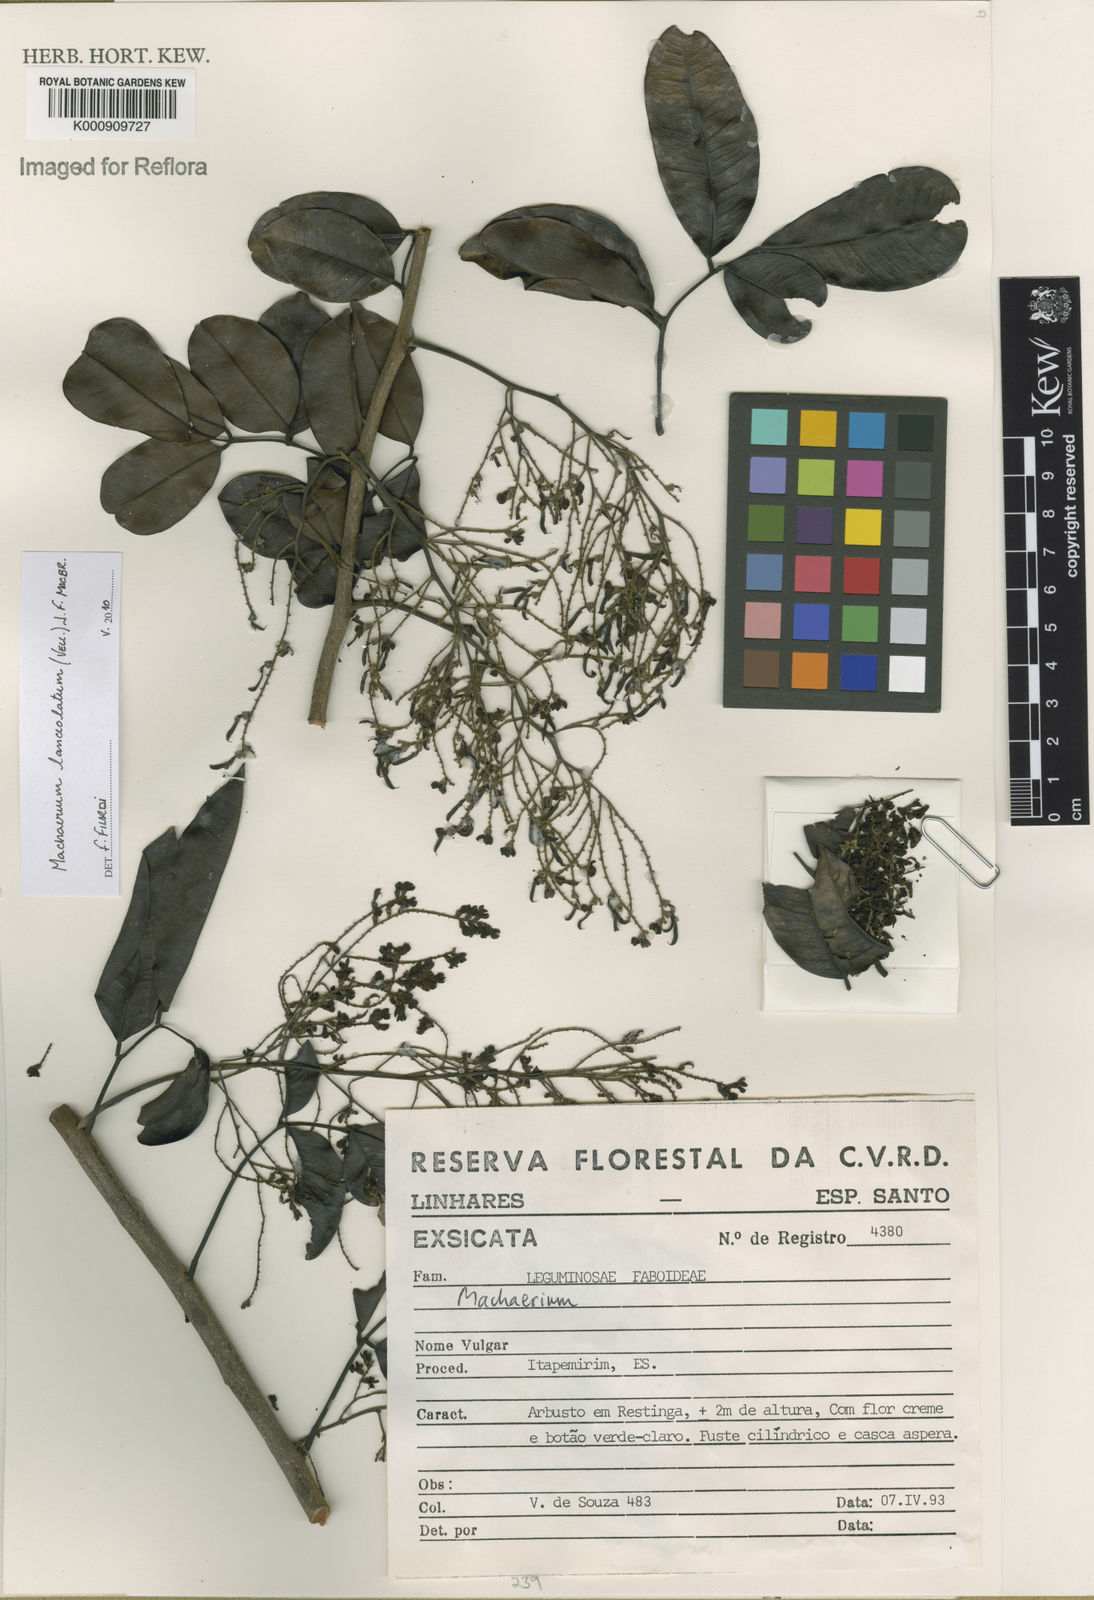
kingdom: Plantae
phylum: Tracheophyta
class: Magnoliopsida
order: Fabales
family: Fabaceae
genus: Machaerium
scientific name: Machaerium lanceolatum
